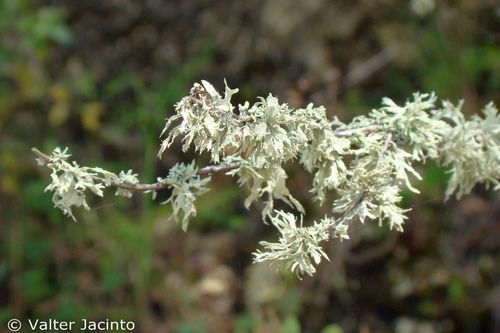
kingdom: Fungi
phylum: Ascomycota
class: Lecanoromycetes
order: Lecanorales
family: Parmeliaceae
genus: Evernia
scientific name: Evernia prunastri
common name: Oak moss
